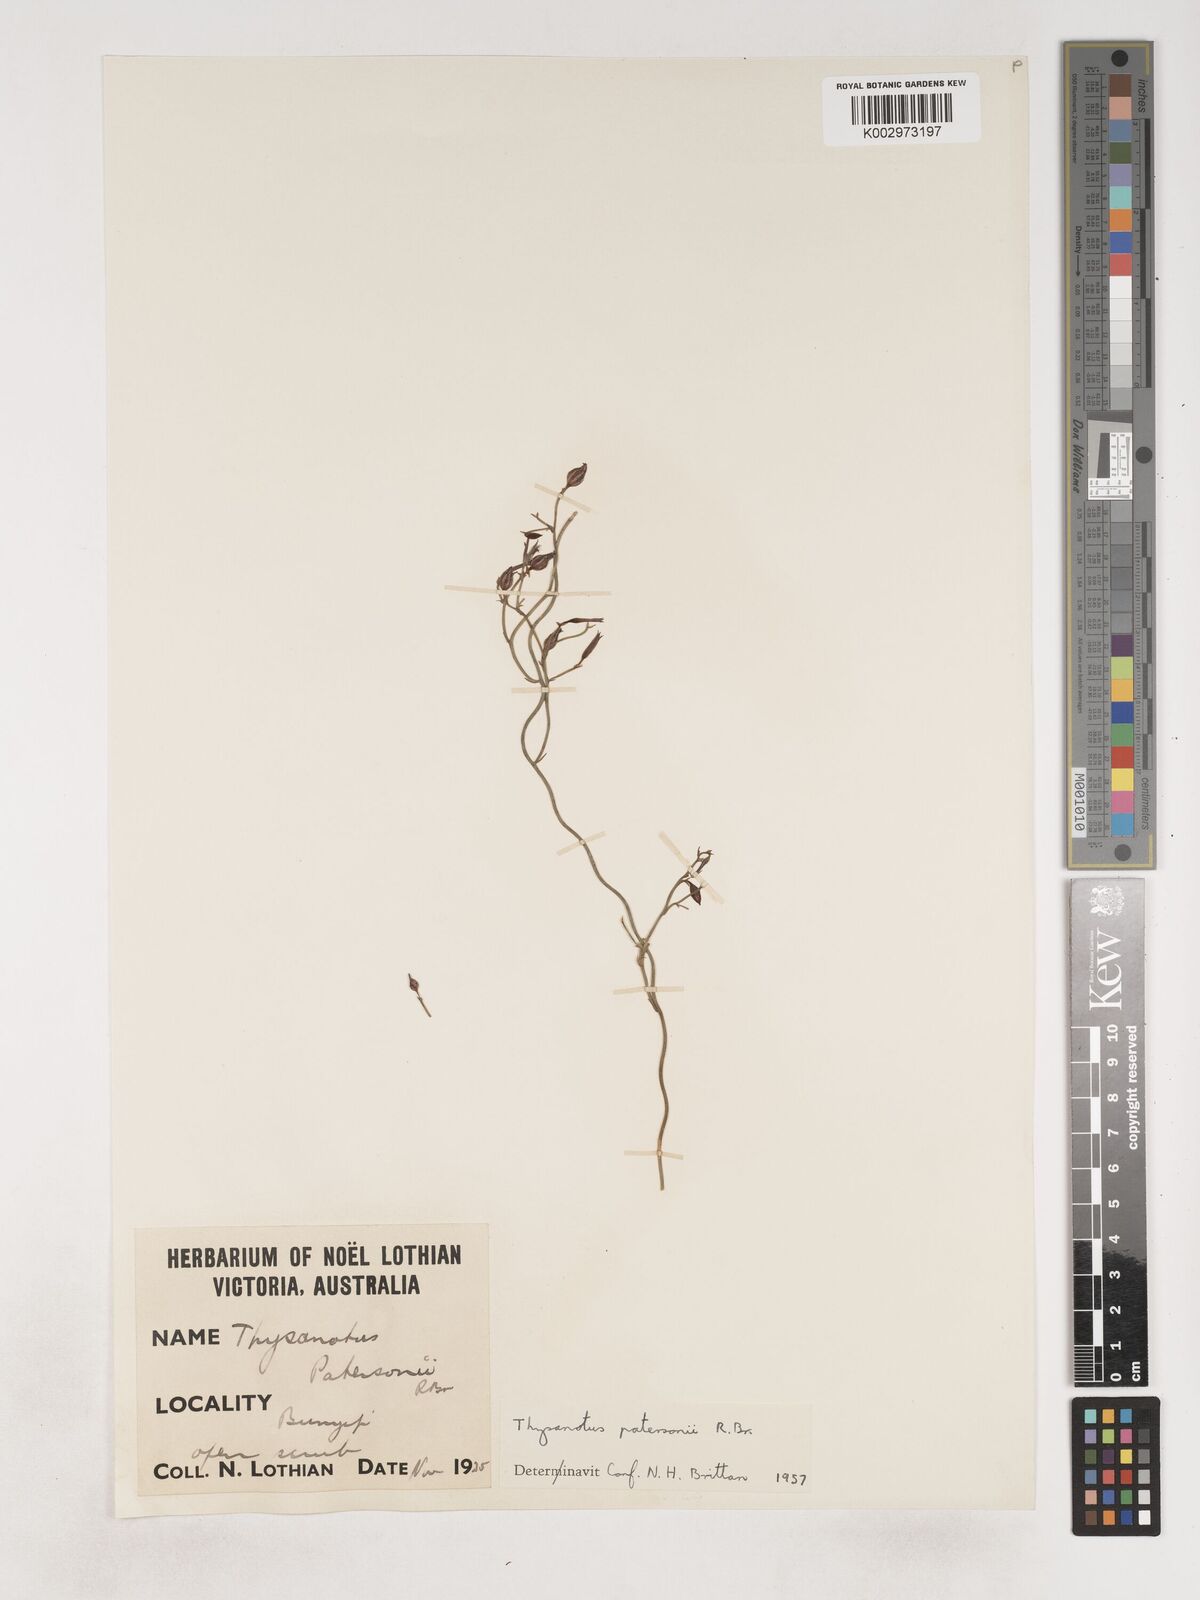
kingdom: Plantae
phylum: Tracheophyta
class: Liliopsida
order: Asparagales
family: Asparagaceae
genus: Thysanotus
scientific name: Thysanotus patersonii
